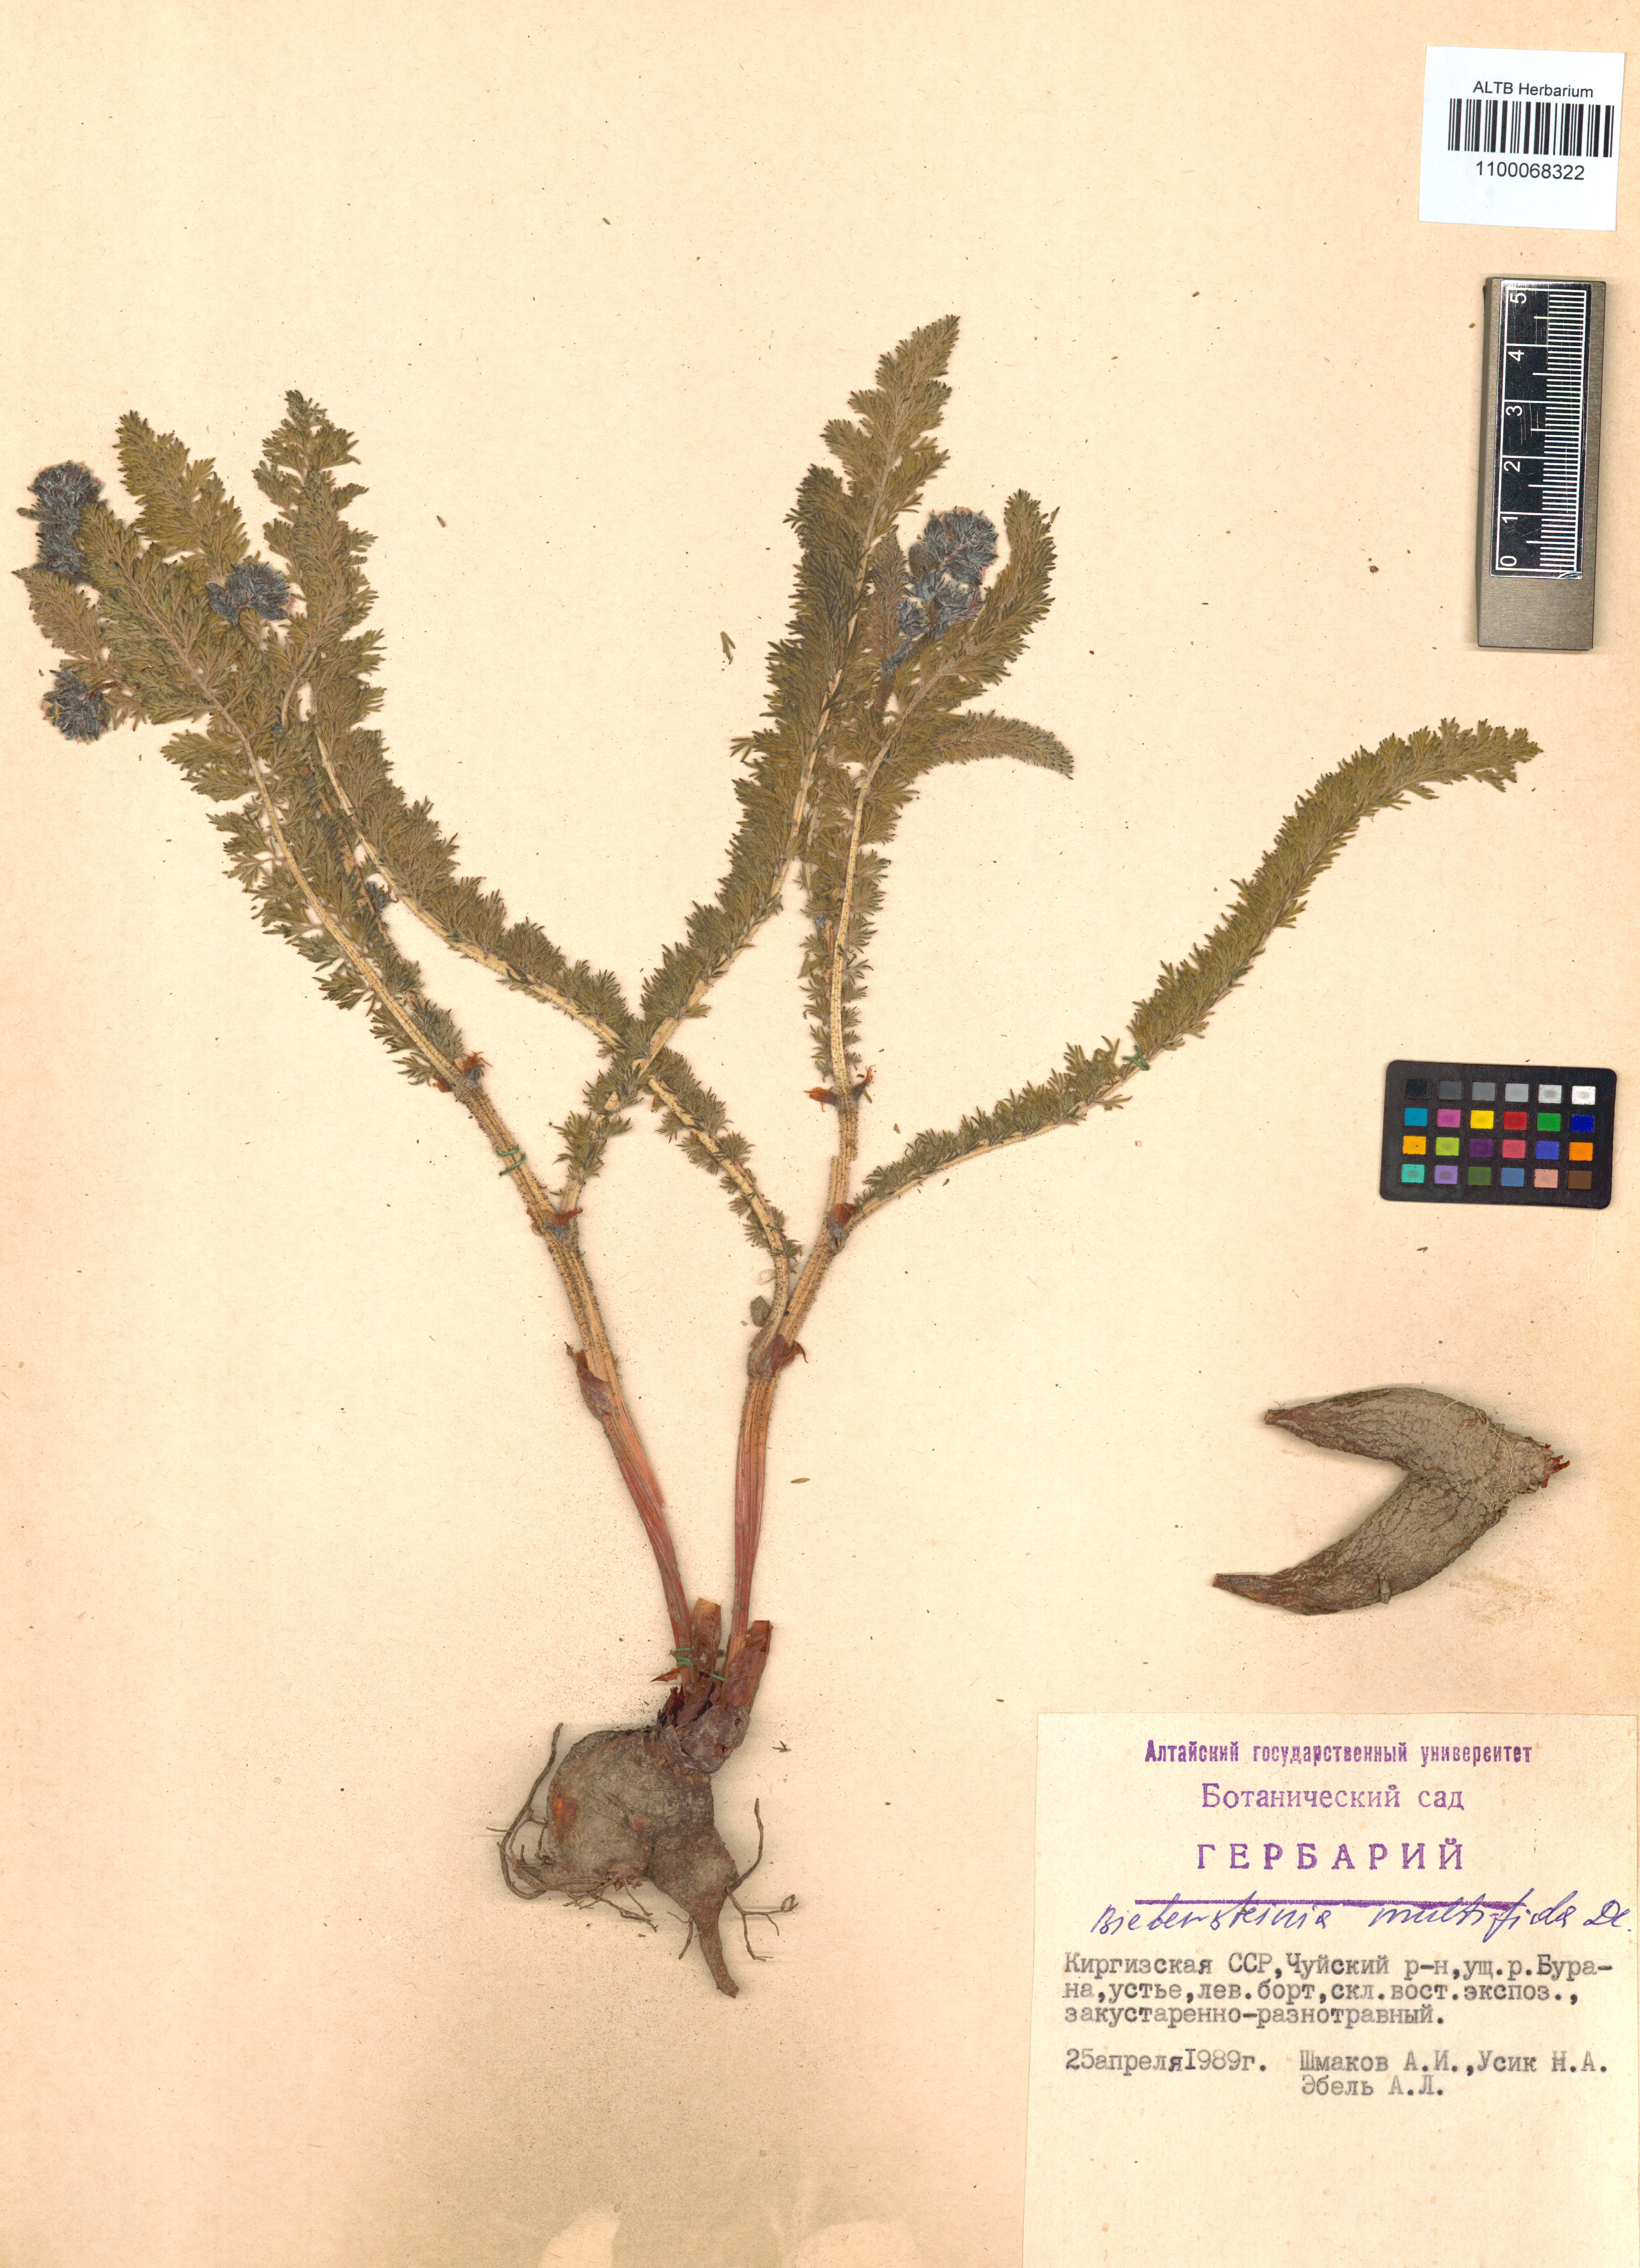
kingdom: Plantae
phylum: Tracheophyta
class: Magnoliopsida
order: Sapindales
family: Biebersteiniaceae
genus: Biebersteinia
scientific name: Biebersteinia multifida
